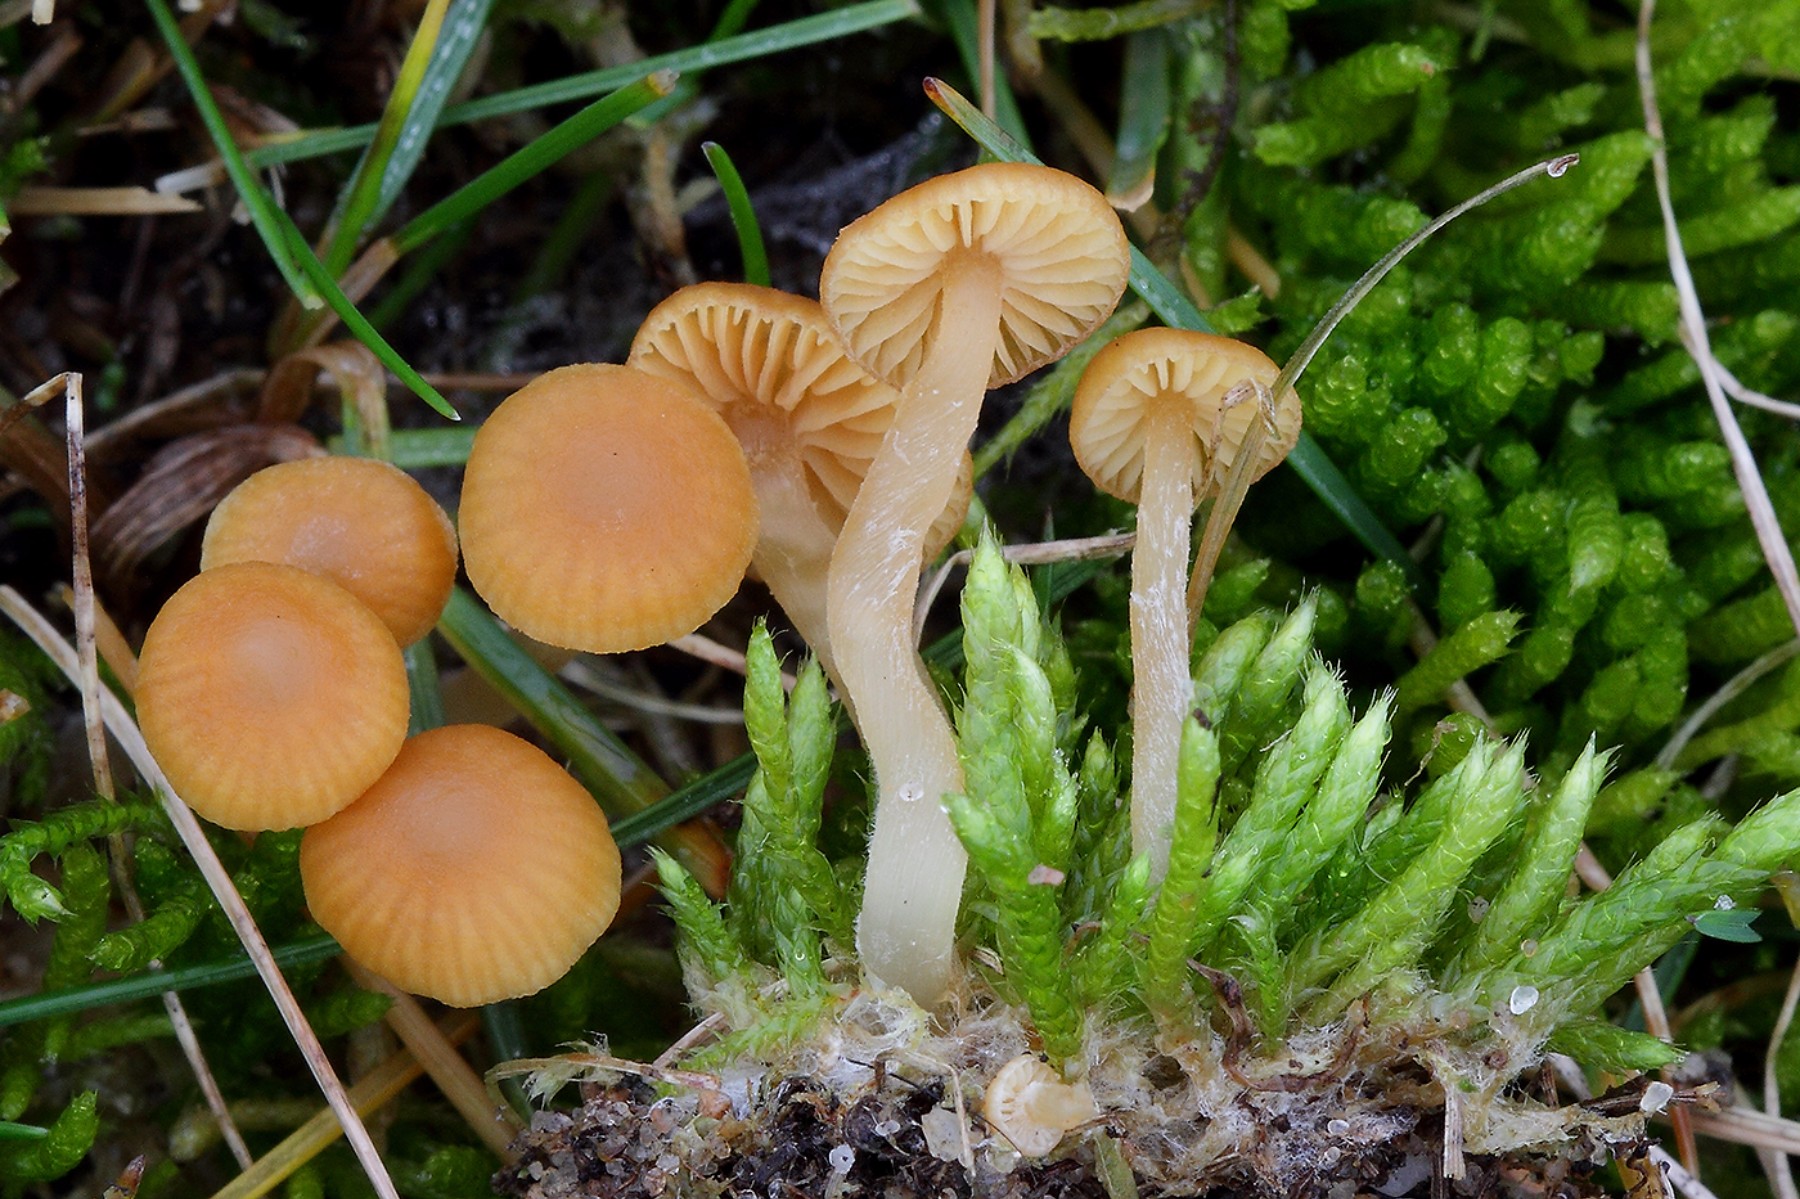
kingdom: Fungi
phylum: Basidiomycota
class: Agaricomycetes
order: Agaricales
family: Hymenogastraceae
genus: Galerina
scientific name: Galerina graminea
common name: plæne-hjelmhat
